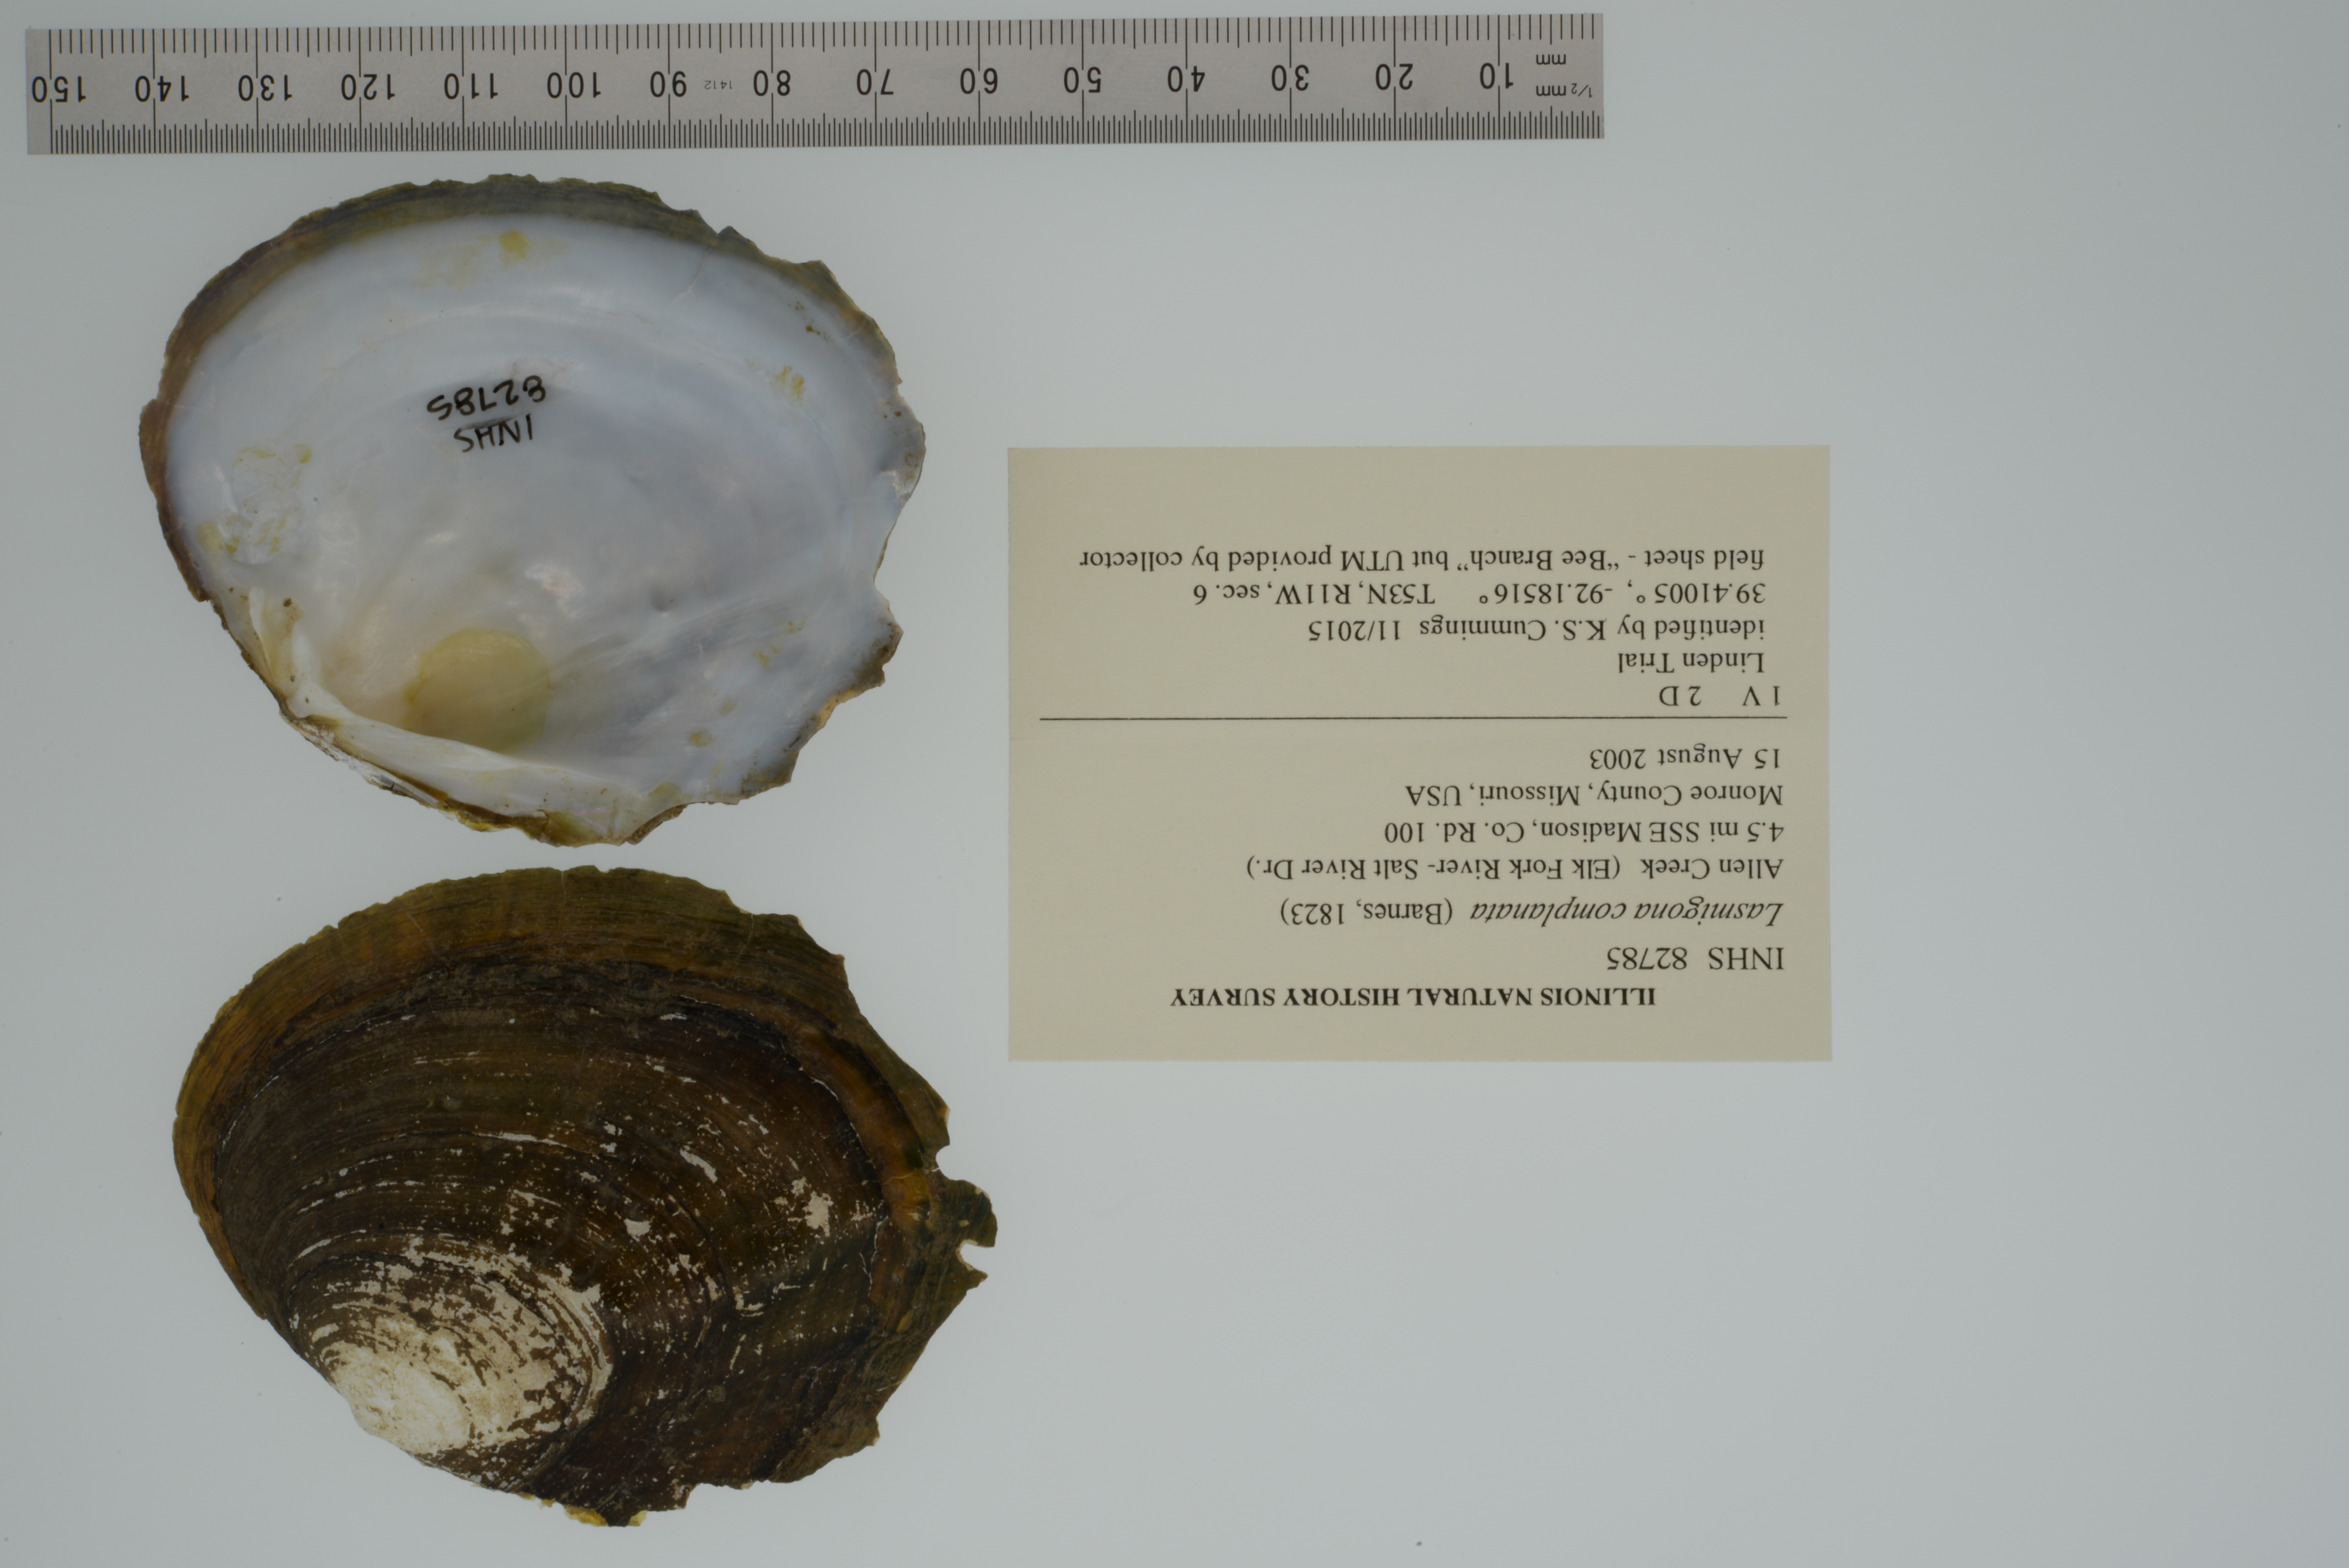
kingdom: Animalia
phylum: Mollusca
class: Bivalvia
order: Unionida
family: Unionidae
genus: Lasmigona
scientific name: Lasmigona complanata
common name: White heelsplitter
